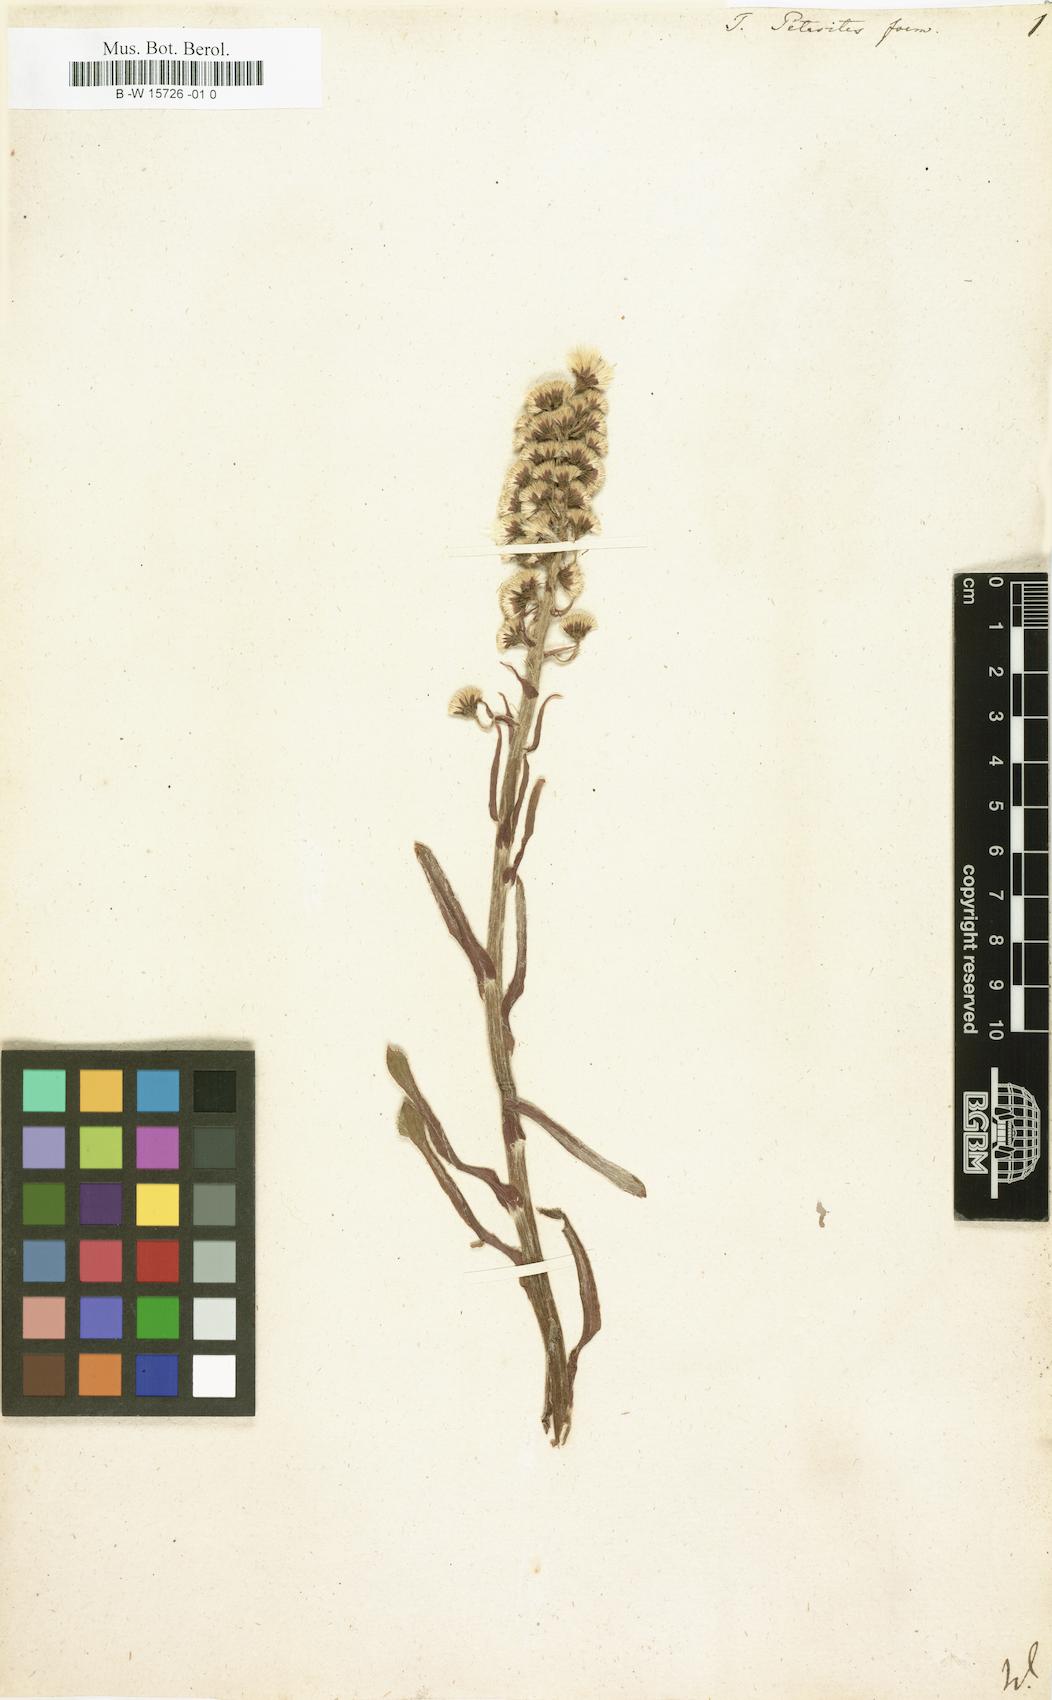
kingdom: Plantae
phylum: Tracheophyta
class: Magnoliopsida
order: Asterales
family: Asteraceae
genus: Petasites
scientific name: Petasites japonicus
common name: Giant butterbur
